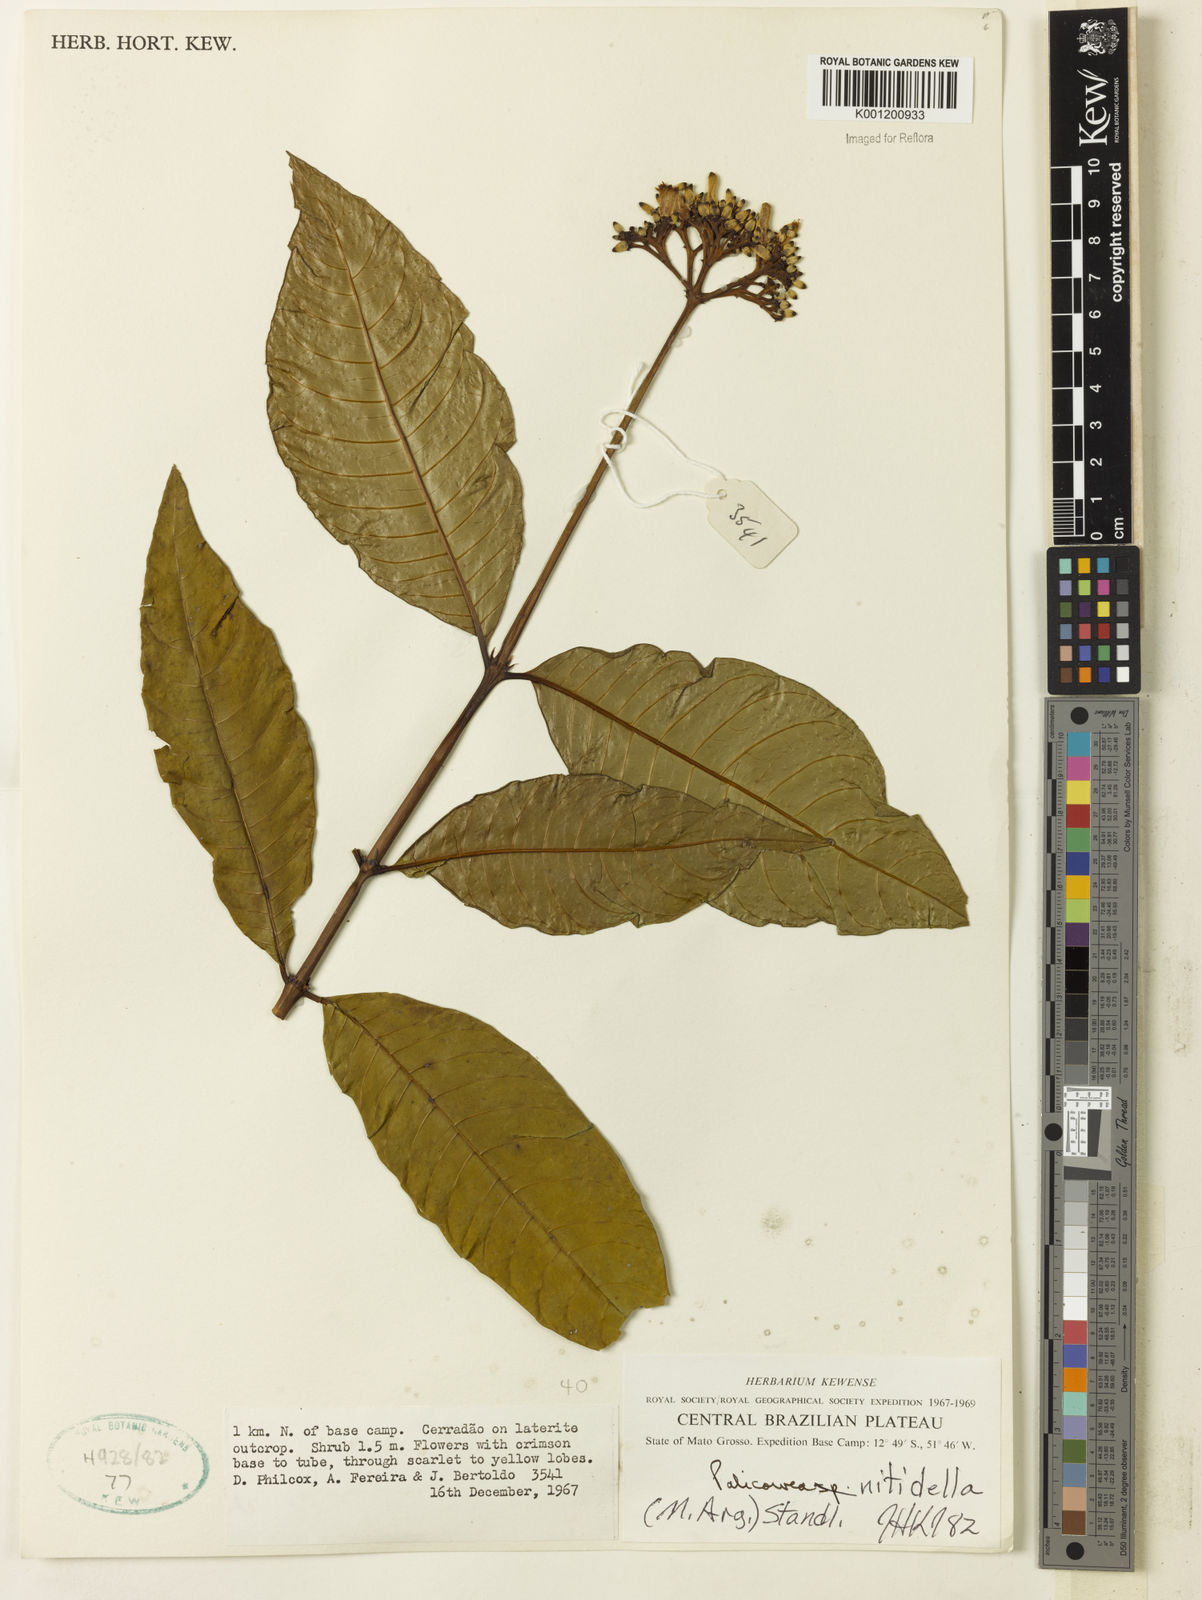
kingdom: Plantae
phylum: Tracheophyta
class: Magnoliopsida
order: Gentianales
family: Rubiaceae
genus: Palicourea
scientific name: Palicourea
